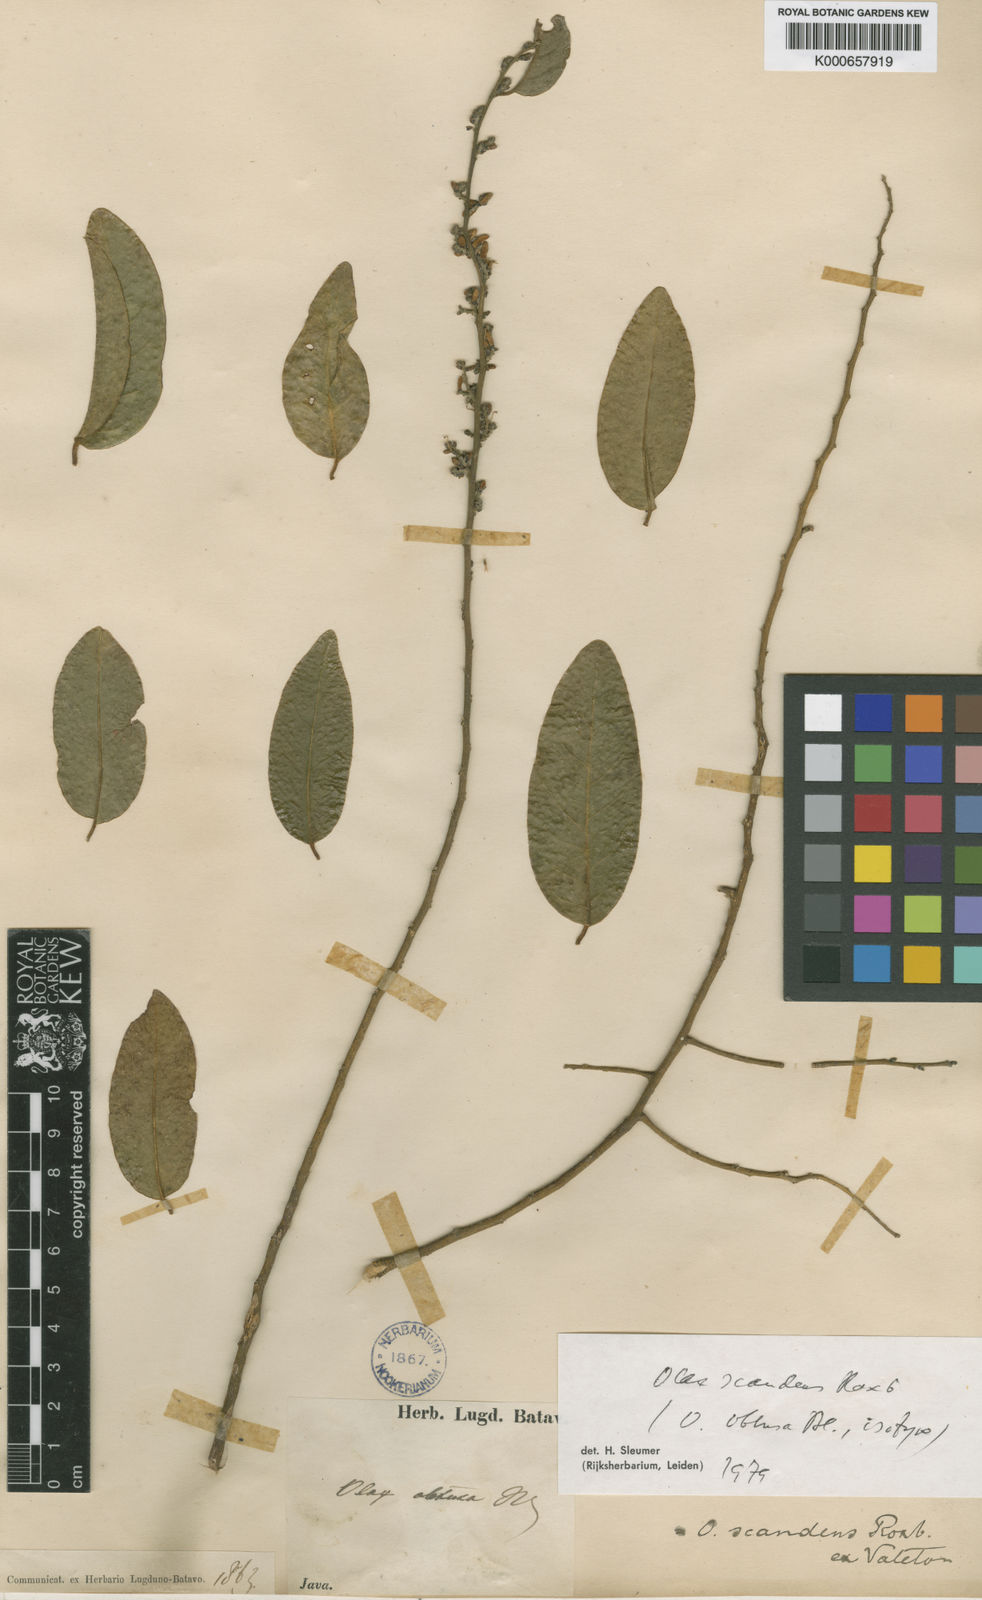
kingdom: Plantae
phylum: Tracheophyta
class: Magnoliopsida
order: Santalales
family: Olacaceae
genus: Olax
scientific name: Olax psittacorum
